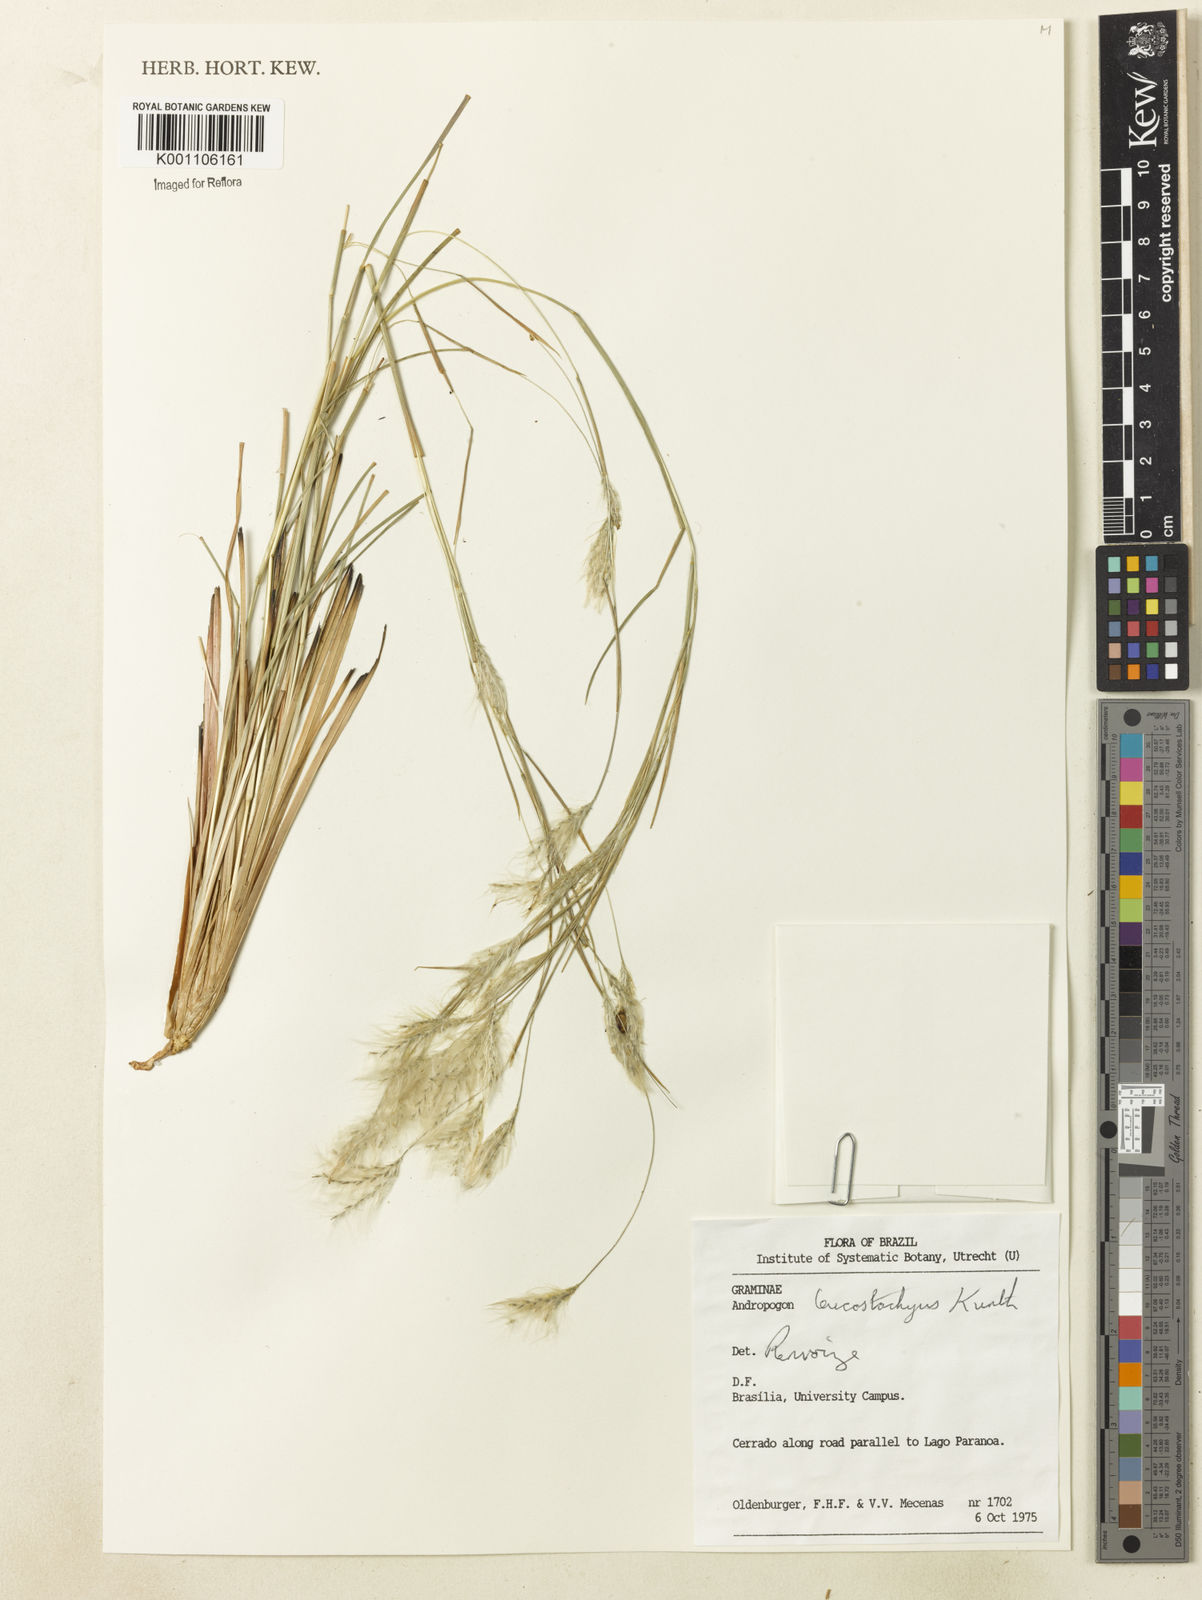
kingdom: Plantae
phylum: Tracheophyta
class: Liliopsida
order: Poales
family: Poaceae
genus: Andropogon
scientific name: Andropogon leucostachyus
